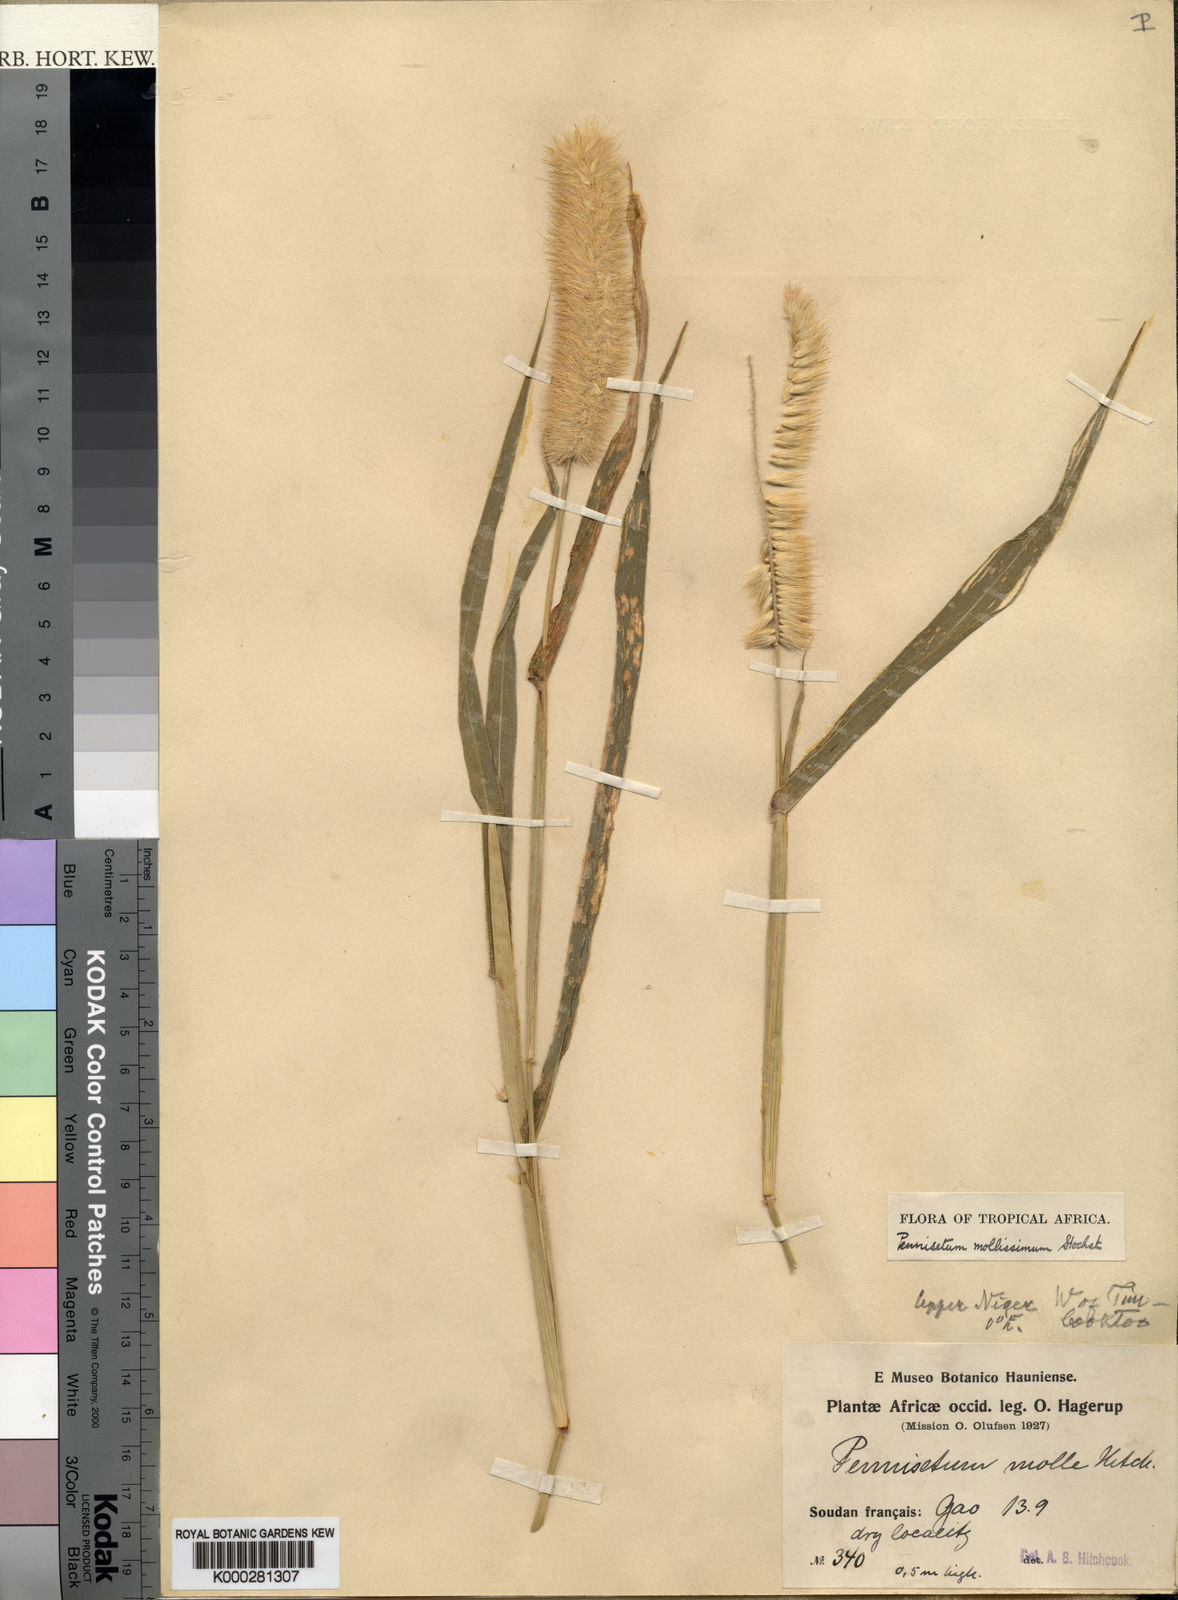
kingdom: Plantae
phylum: Tracheophyta
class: Liliopsida
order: Poales
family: Poaceae
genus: Cenchrus
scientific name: Cenchrus violaceus
